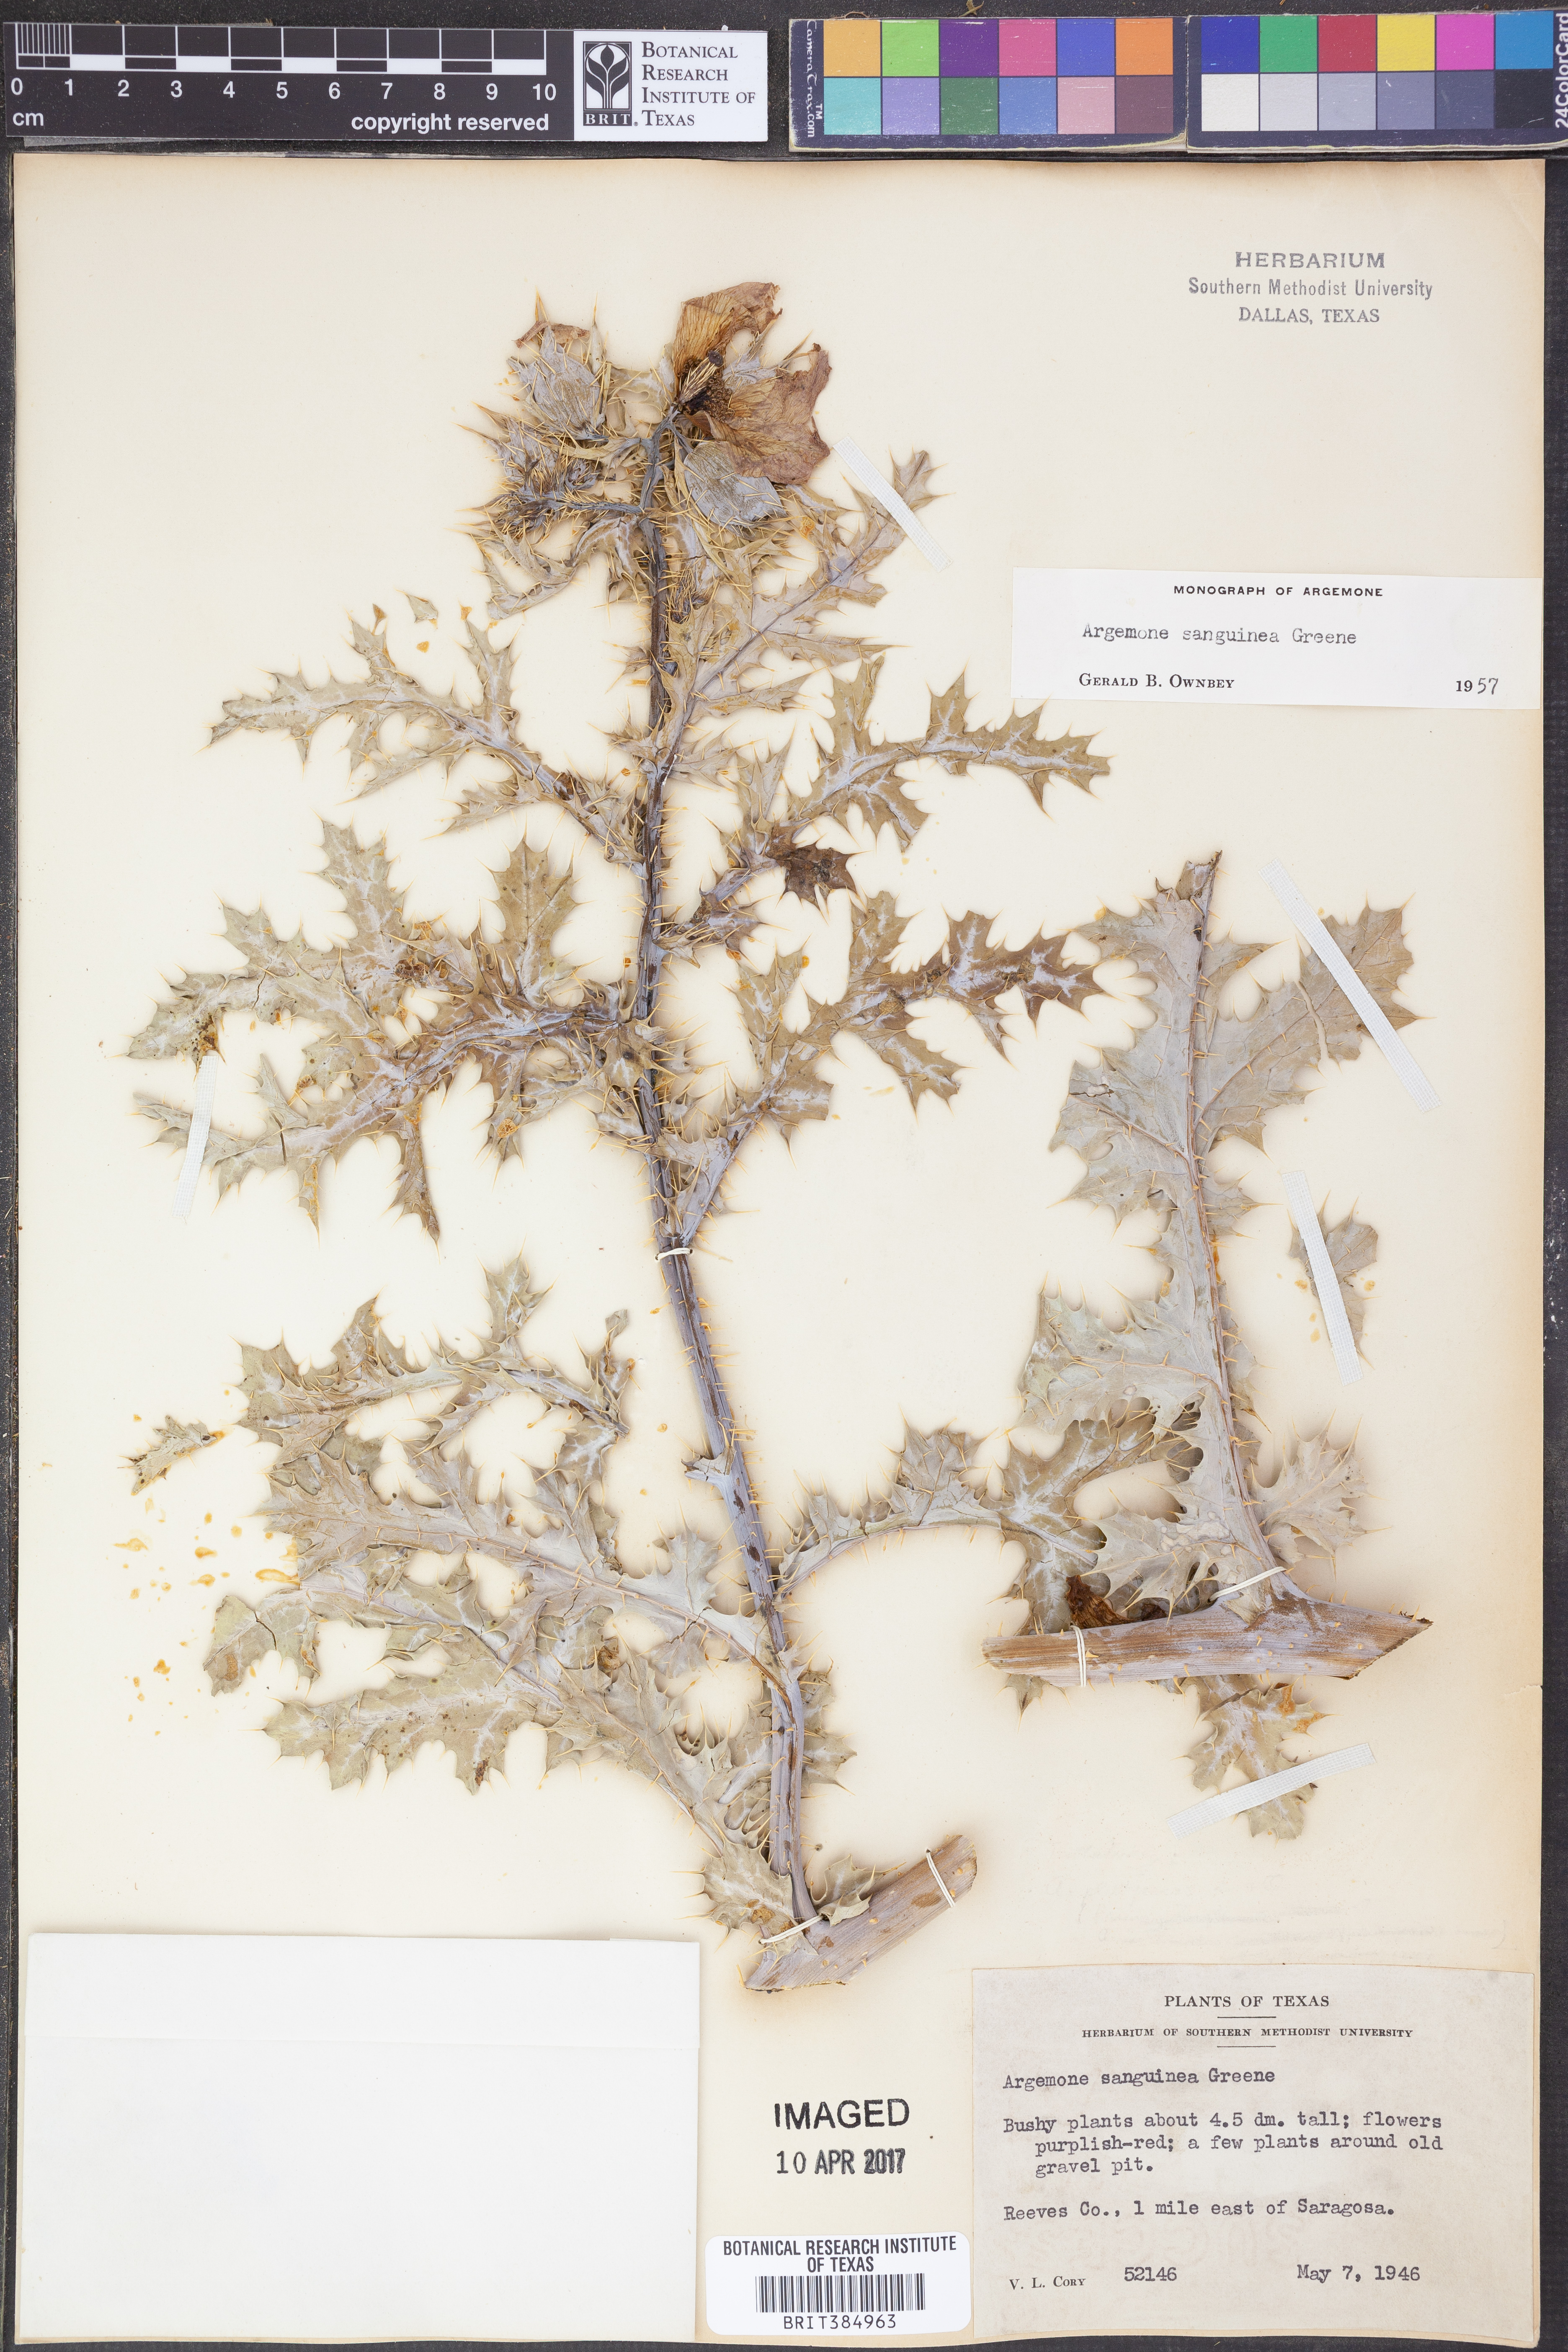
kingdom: Plantae
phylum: Tracheophyta
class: Magnoliopsida
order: Ranunculales
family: Papaveraceae
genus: Argemone
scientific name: Argemone sanguinea
